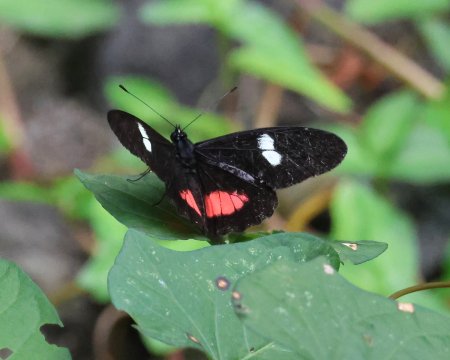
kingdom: Animalia
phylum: Arthropoda
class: Insecta
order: Lepidoptera
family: Pieridae
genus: Archonias
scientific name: Archonias brassolis
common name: Cattleheart White
